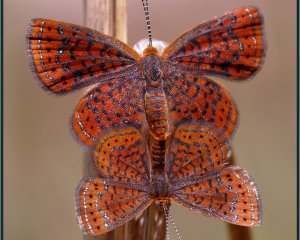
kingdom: Animalia
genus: Calephelis
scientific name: Calephelis virginiensis
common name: Little Metalmark
